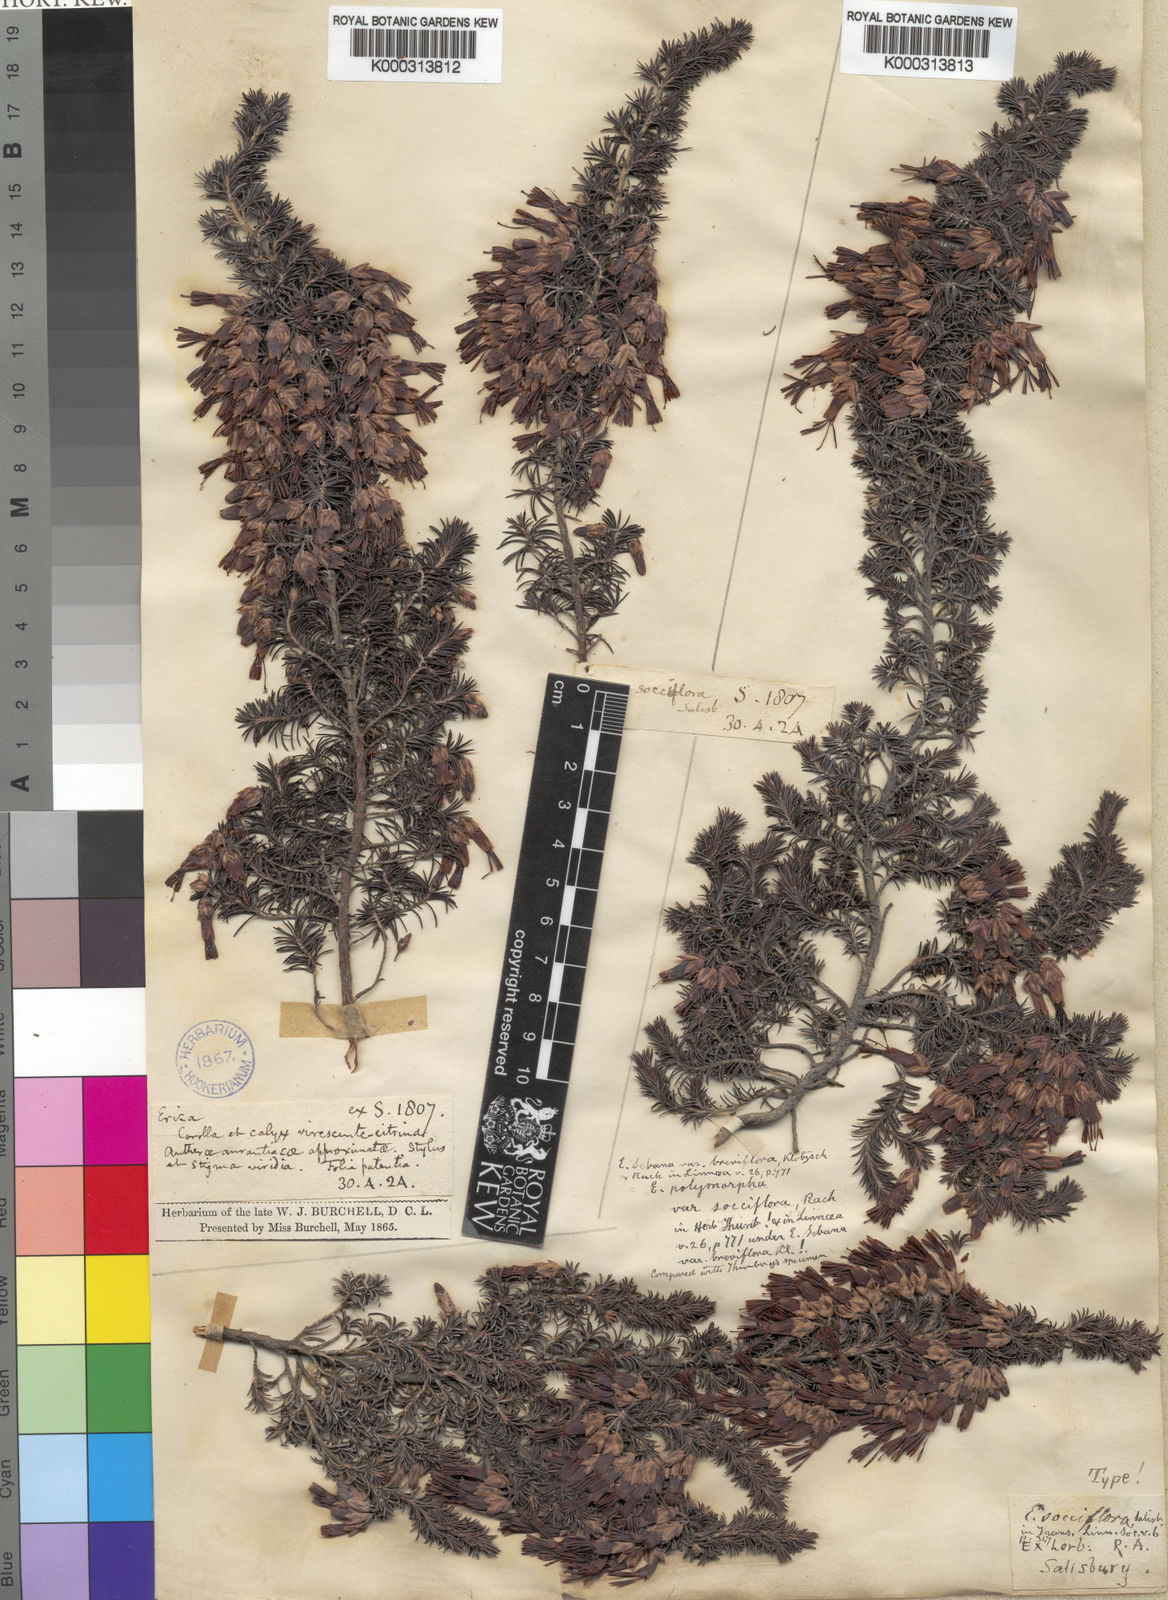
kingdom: Plantae
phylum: Tracheophyta
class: Magnoliopsida
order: Ericales
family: Ericaceae
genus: Erica
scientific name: Erica coccinea
